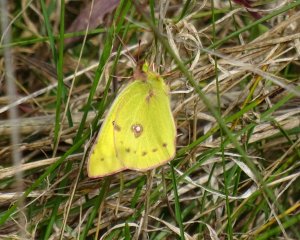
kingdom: Animalia
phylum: Arthropoda
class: Insecta
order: Lepidoptera
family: Pieridae
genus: Colias
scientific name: Colias philodice
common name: Clouded Sulphur
